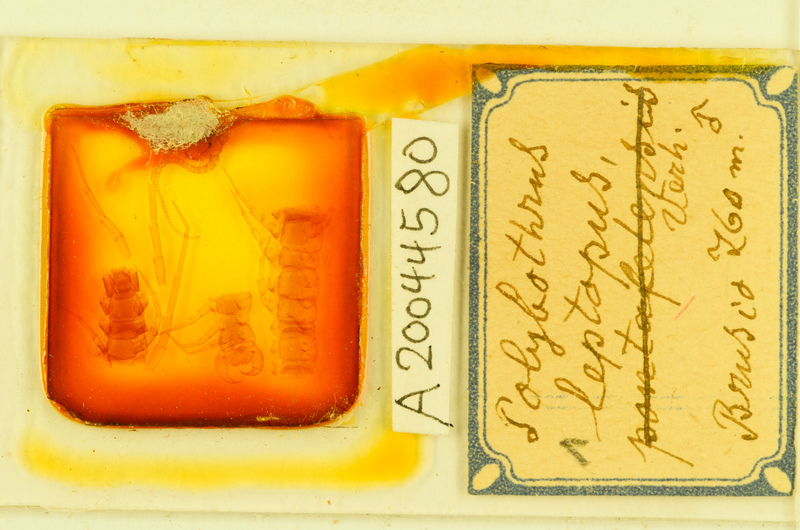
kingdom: Animalia
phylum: Arthropoda
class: Chilopoda
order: Lithobiomorpha
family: Lithobiidae
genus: Polybothrus
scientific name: Polybothrus leptopus
